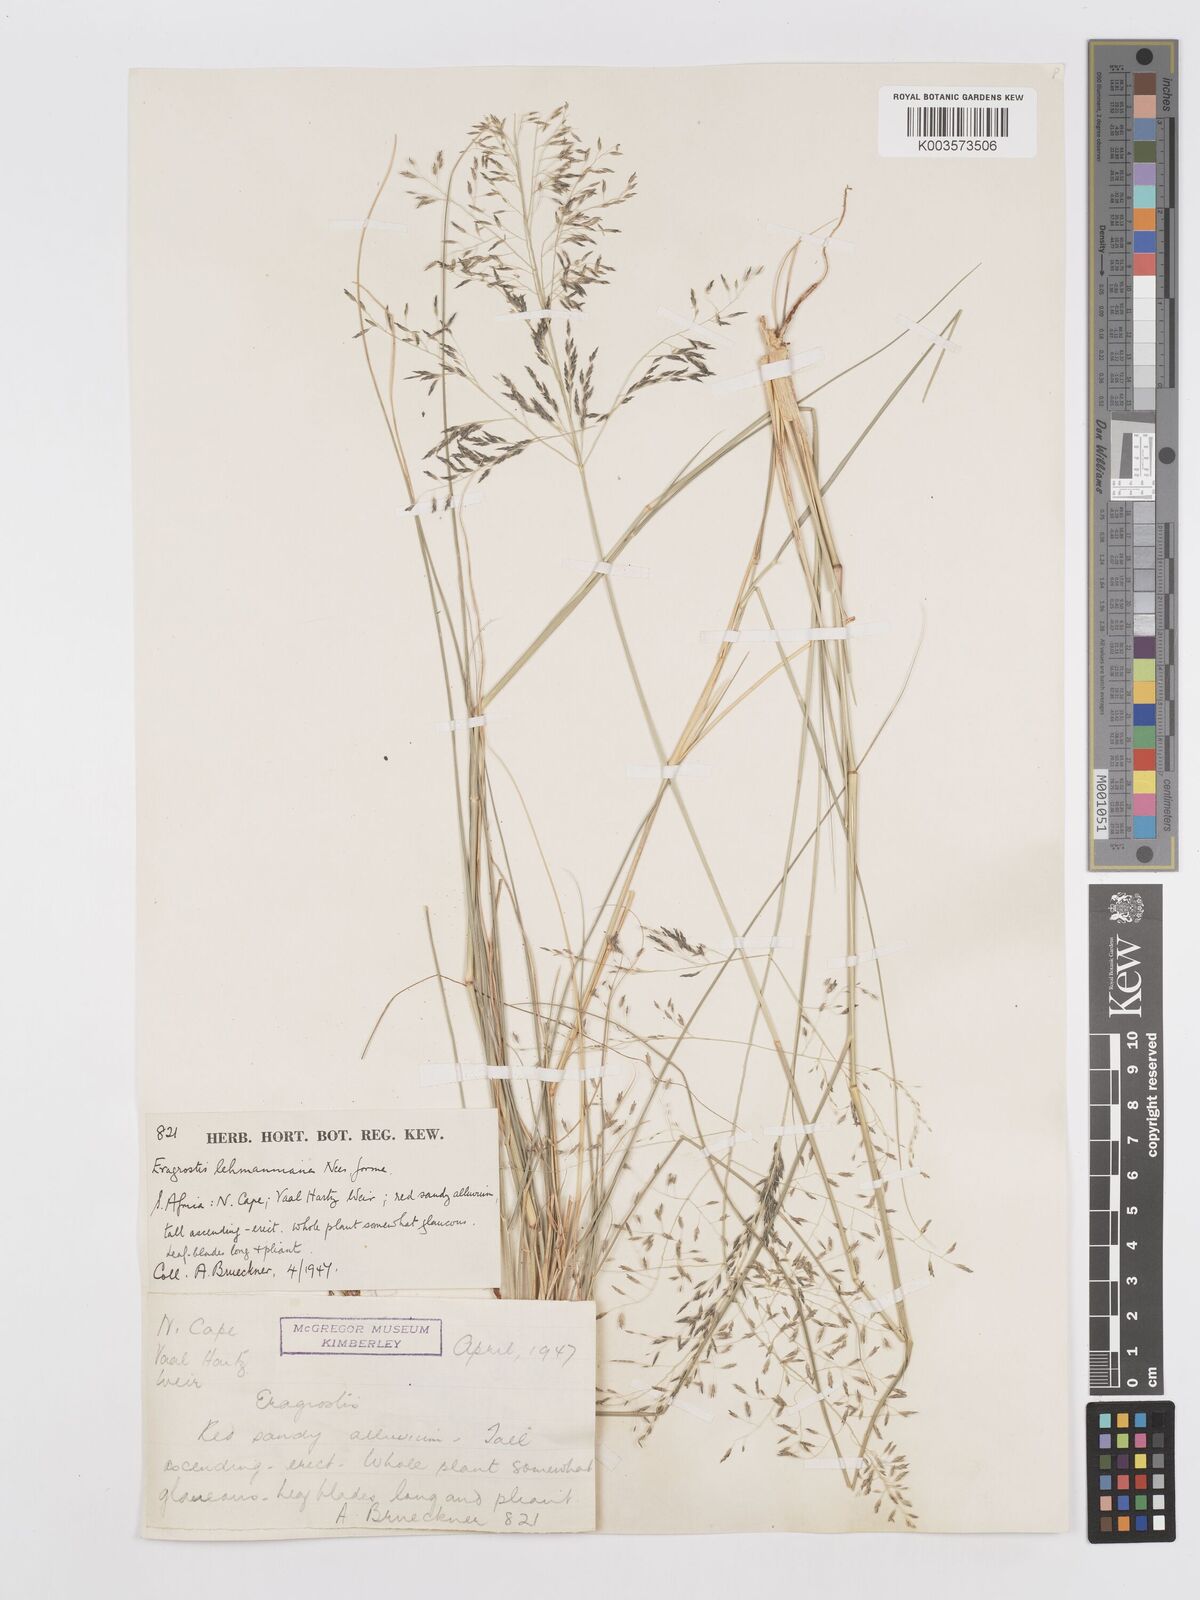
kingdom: Plantae
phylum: Tracheophyta
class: Liliopsida
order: Poales
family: Poaceae
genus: Eragrostis
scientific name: Eragrostis lehmanniana
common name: Lehmann lovegrass
